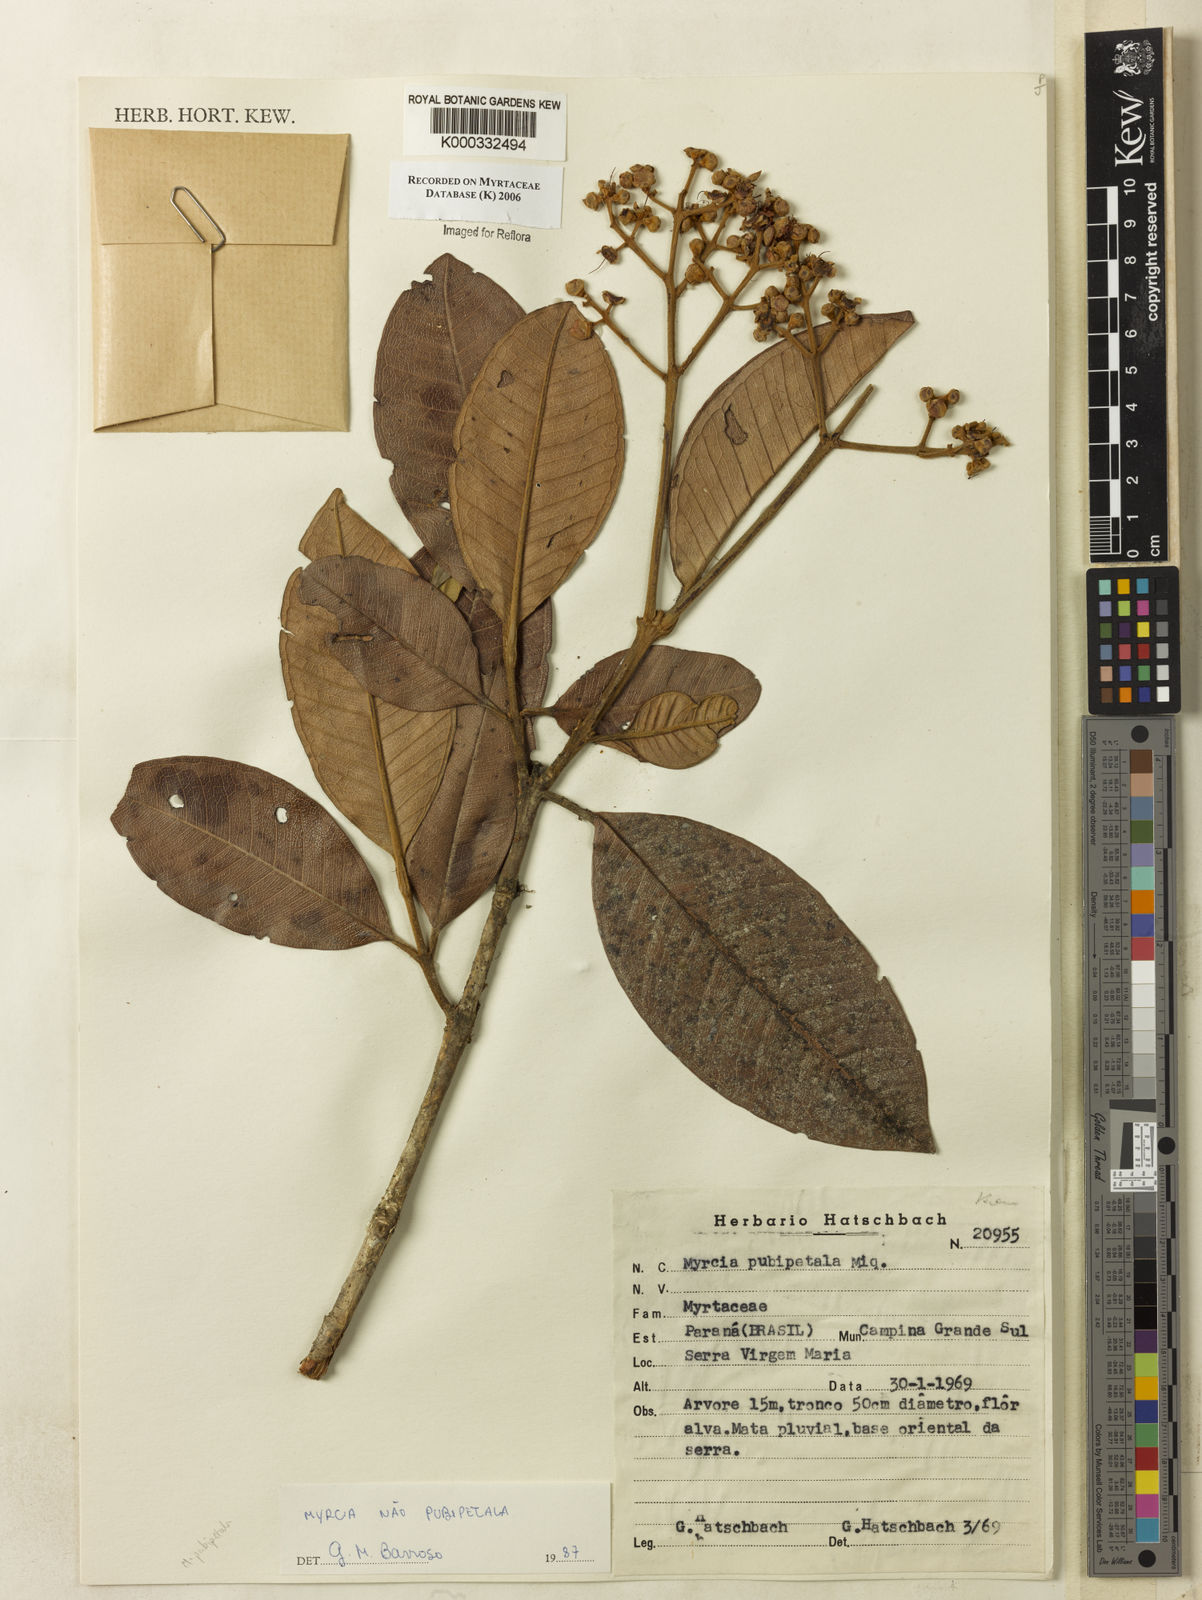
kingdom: Plantae
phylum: Tracheophyta
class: Magnoliopsida
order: Myrtales
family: Myrtaceae
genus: Myrcia
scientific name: Myrcia pubipetala
